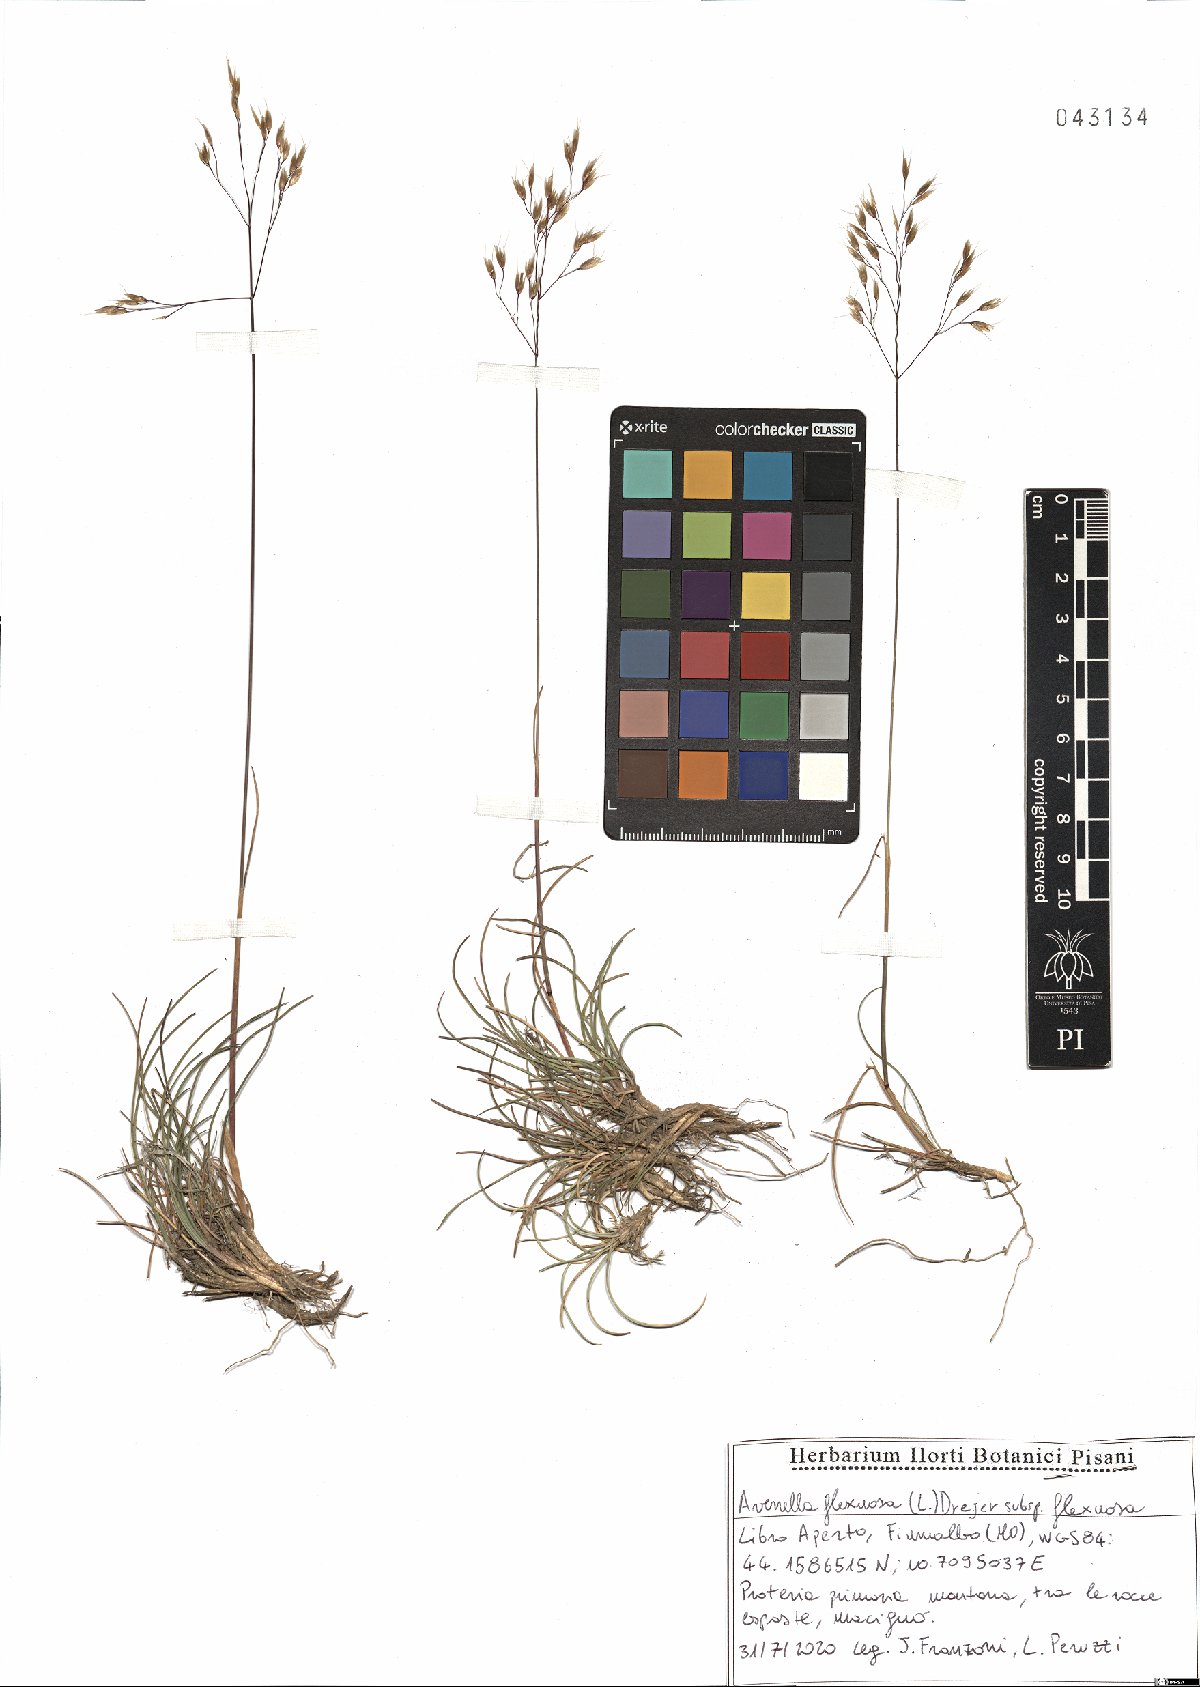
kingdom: Plantae
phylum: Tracheophyta
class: Liliopsida
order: Poales
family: Poaceae
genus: Avenella
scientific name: Avenella flexuosa
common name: Wavy hairgrass
